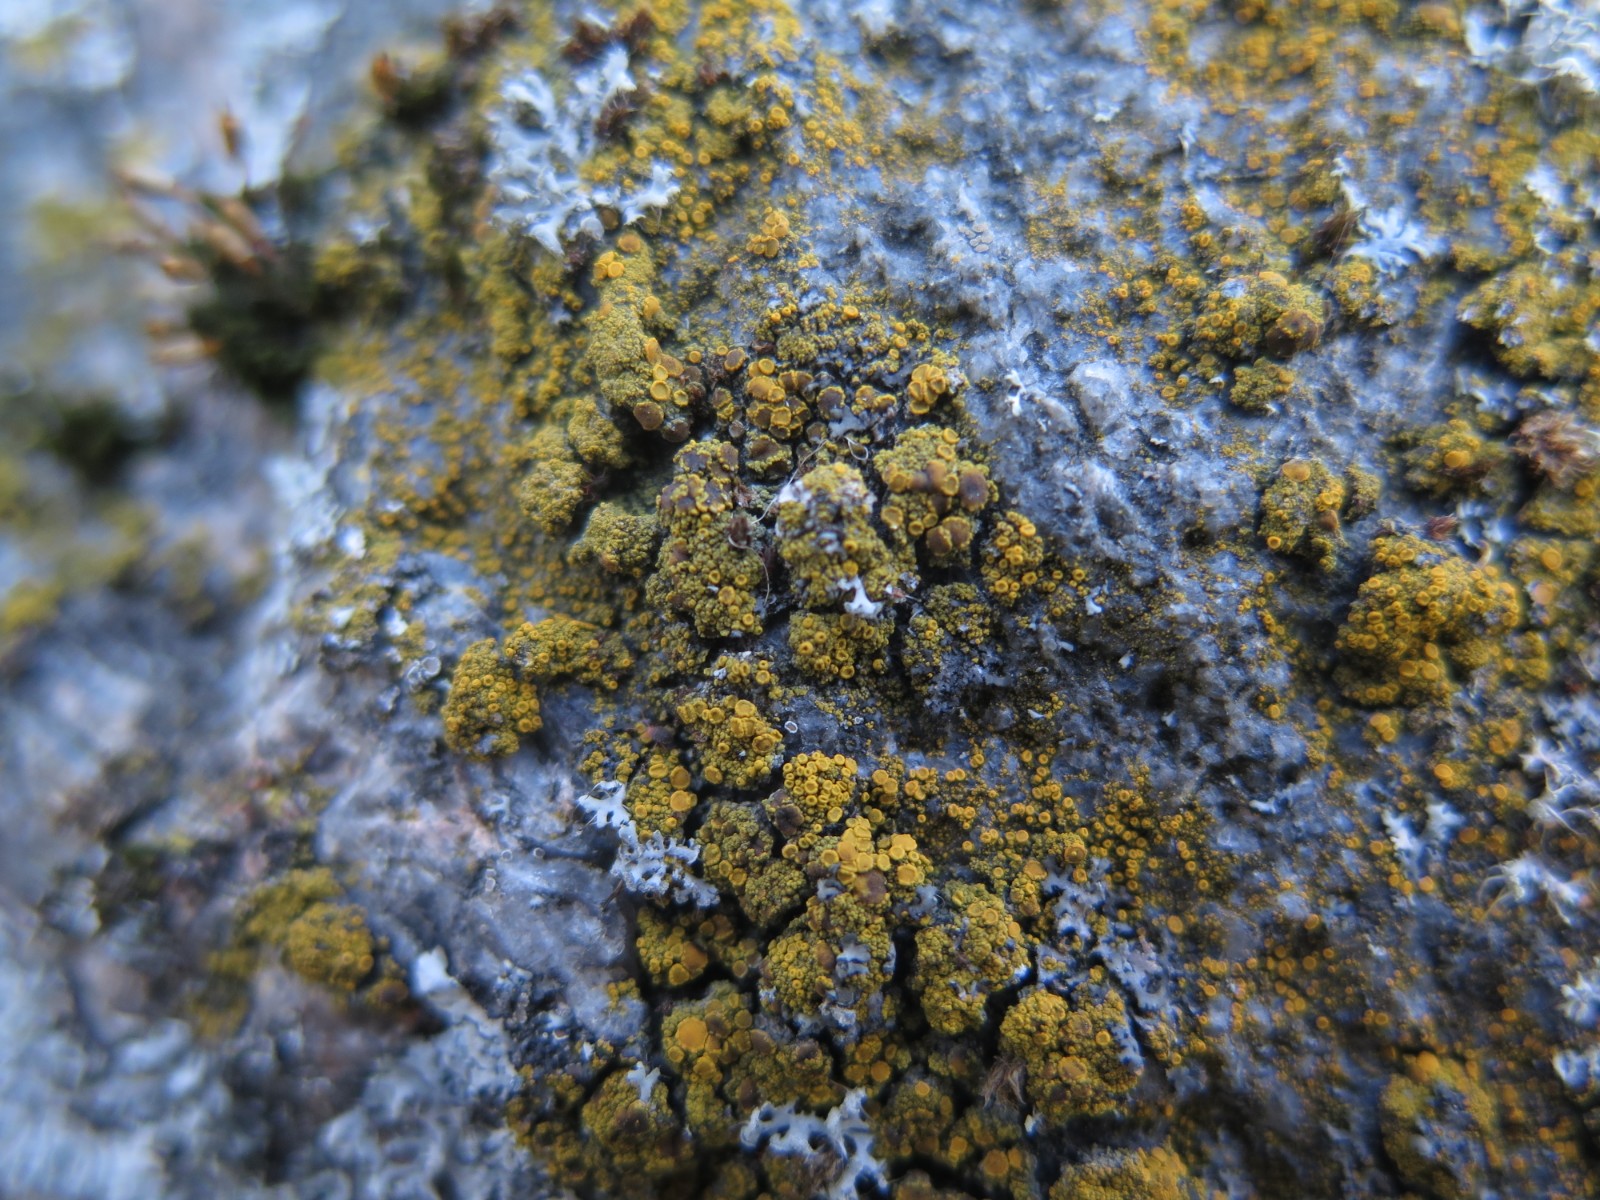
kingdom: Fungi
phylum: Ascomycota
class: Candelariomycetes
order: Candelariales
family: Candelariaceae
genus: Candelariella
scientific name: Candelariella vitellina
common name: almindelig æggeblommelav
